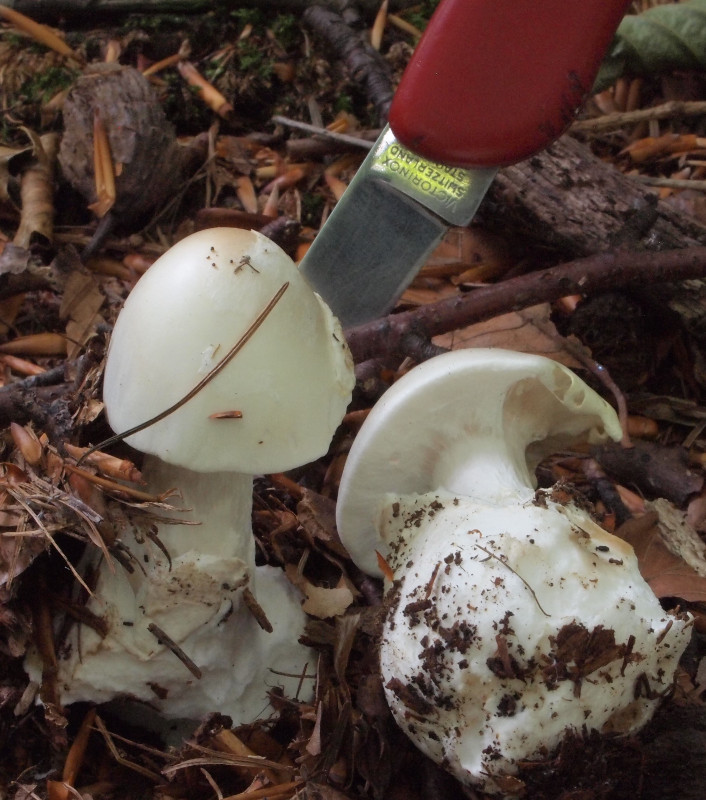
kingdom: Fungi
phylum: Basidiomycota
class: Agaricomycetes
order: Agaricales
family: Amanitaceae
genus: Amanita
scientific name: Amanita virosa
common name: snehvid fluesvamp
